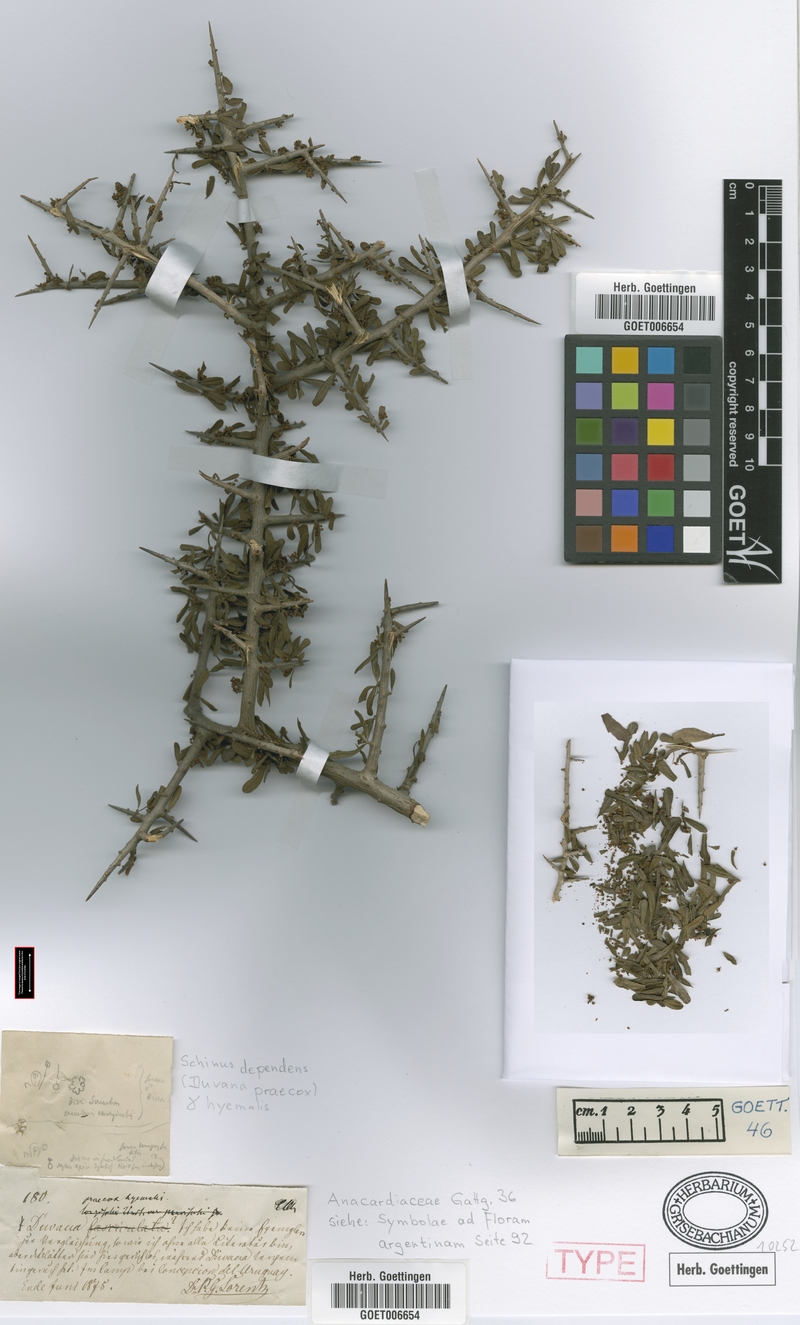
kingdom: Plantae
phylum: Tracheophyta
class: Magnoliopsida
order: Sapindales
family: Anacardiaceae
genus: Schinus
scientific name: Schinus polygama
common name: Hardee peppertree
